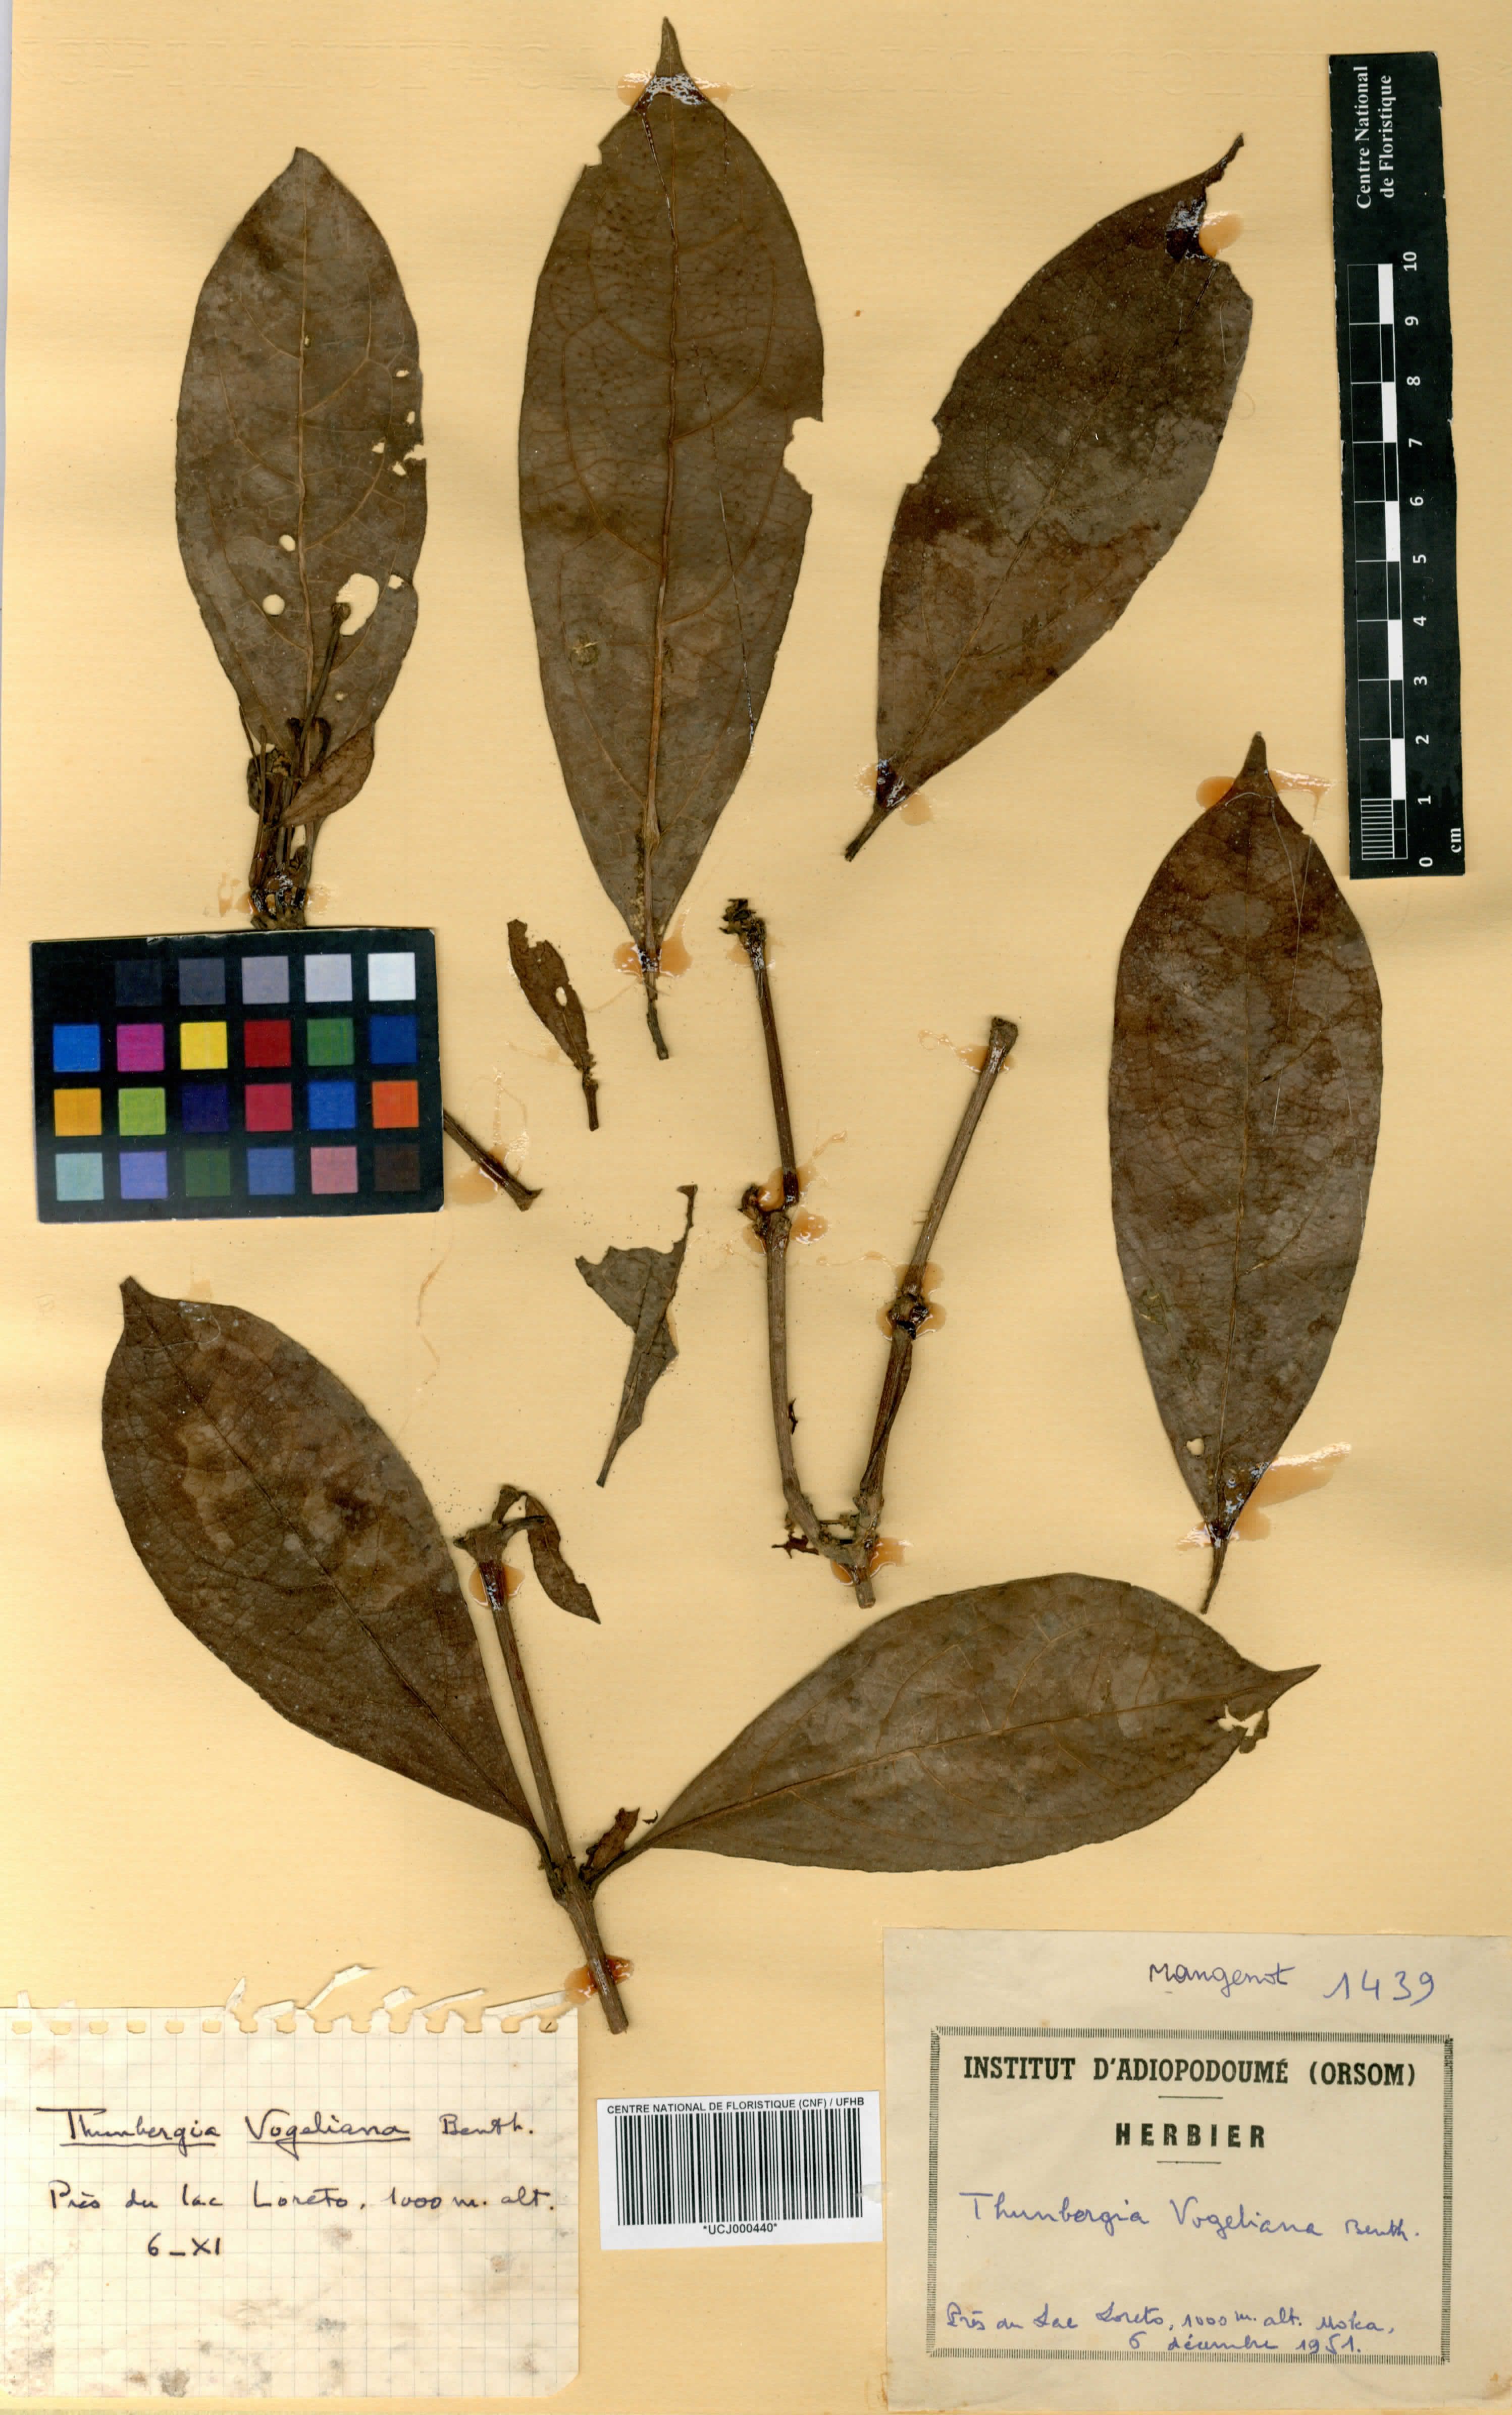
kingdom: Plantae
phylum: Tracheophyta
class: Magnoliopsida
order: Lamiales
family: Acanthaceae
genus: Thunbergia
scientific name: Thunbergia vogeliana
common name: Acanthaceae
